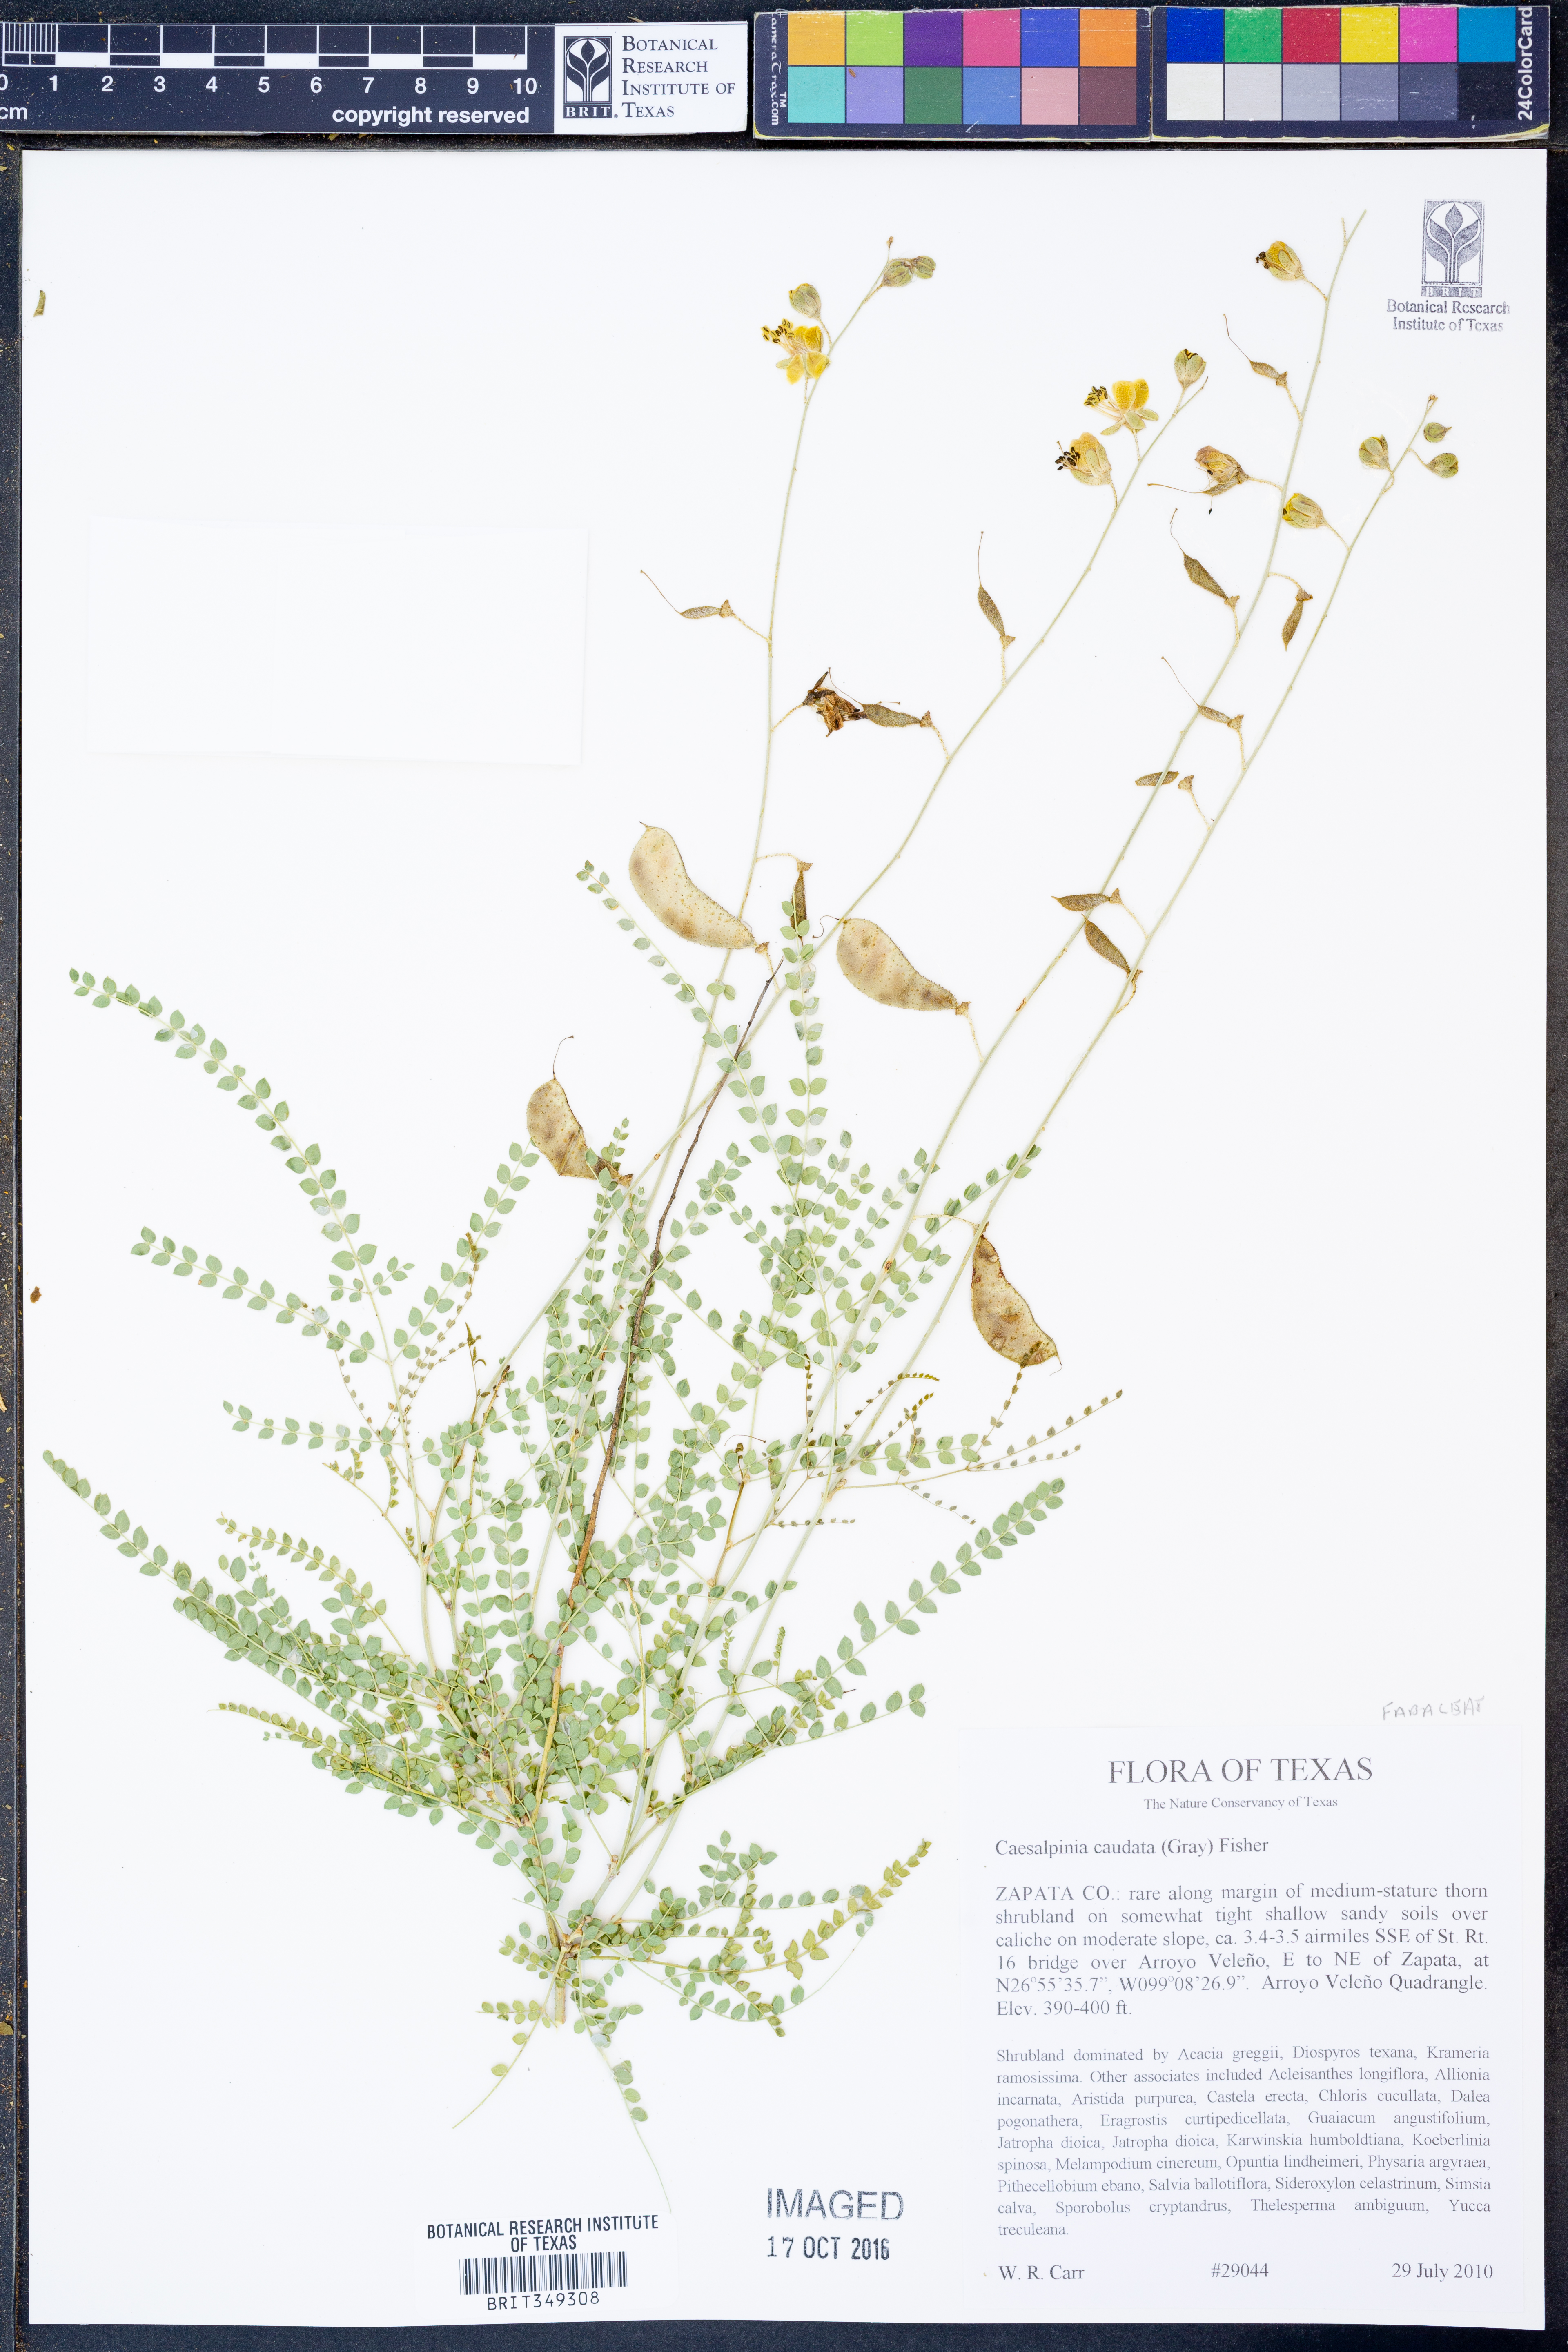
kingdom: Plantae
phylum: Tracheophyta
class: Magnoliopsida
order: Fabales
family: Fabaceae
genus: Erythrostemon
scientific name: Erythrostemon caudatus
